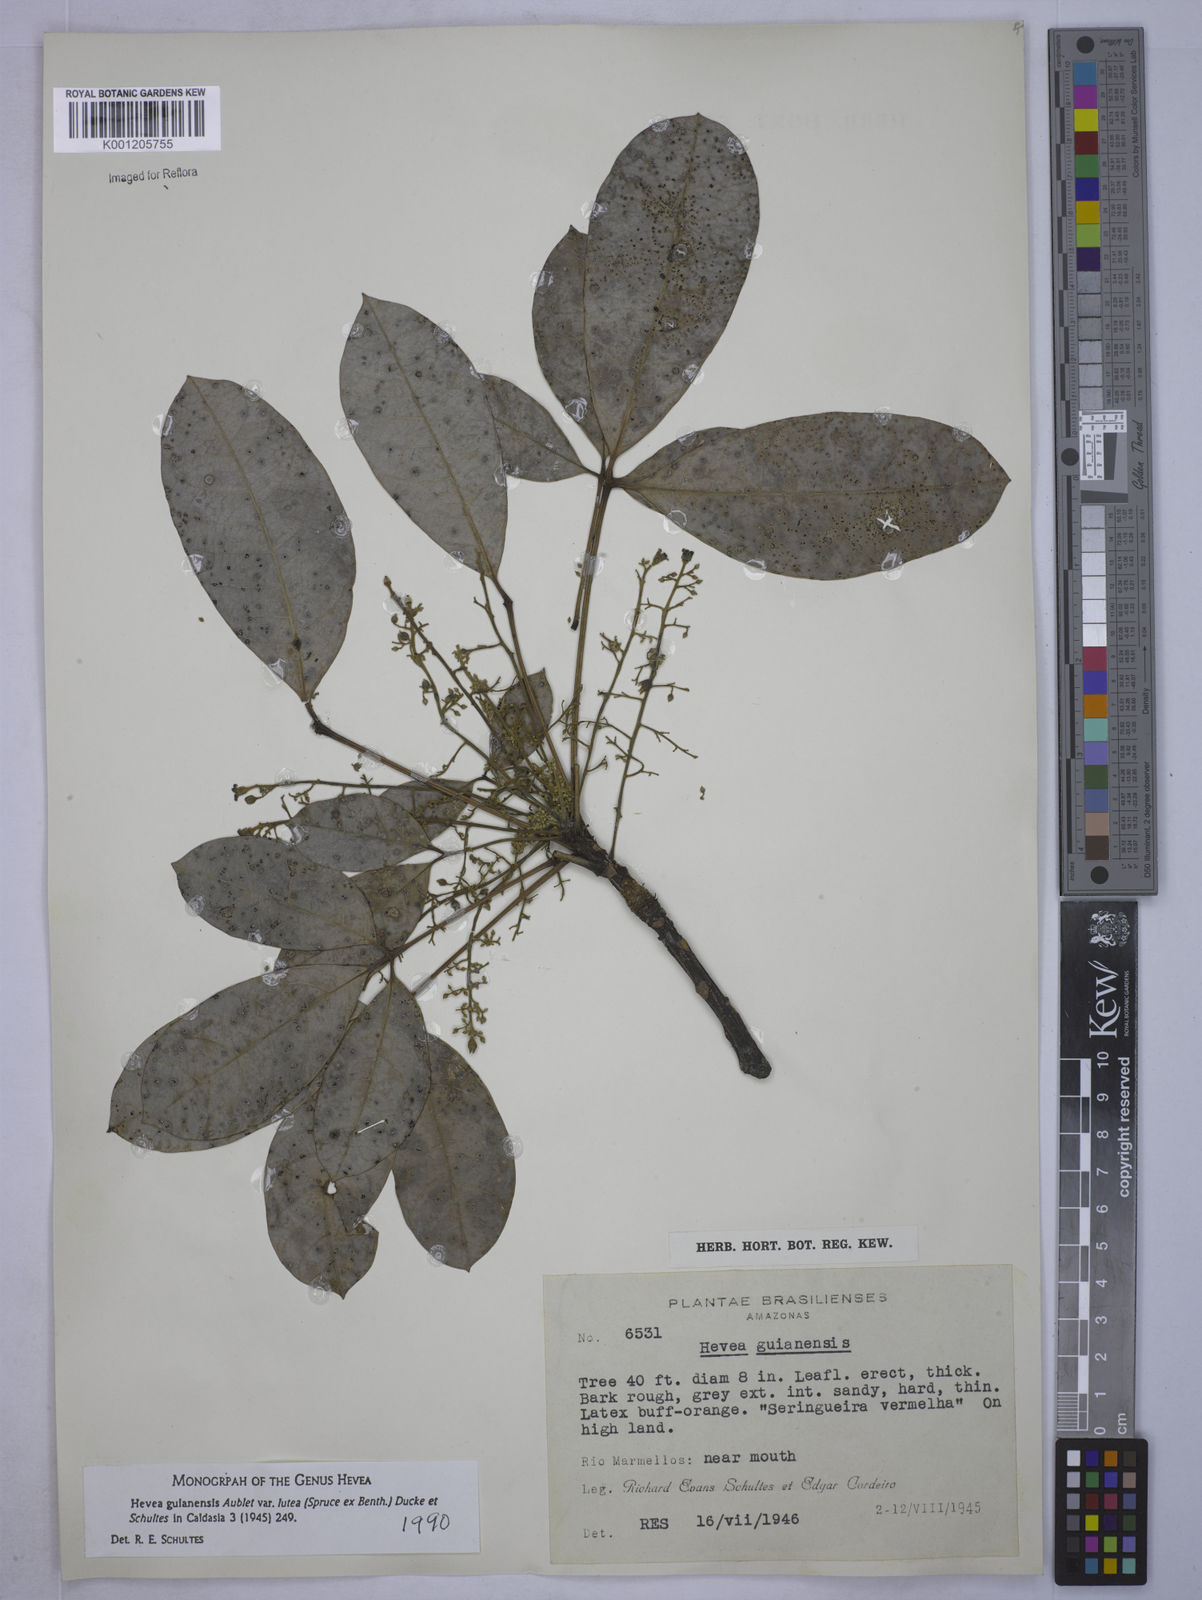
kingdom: Plantae
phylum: Tracheophyta
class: Magnoliopsida
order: Malpighiales
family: Euphorbiaceae
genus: Hevea
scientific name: Hevea guianensis
